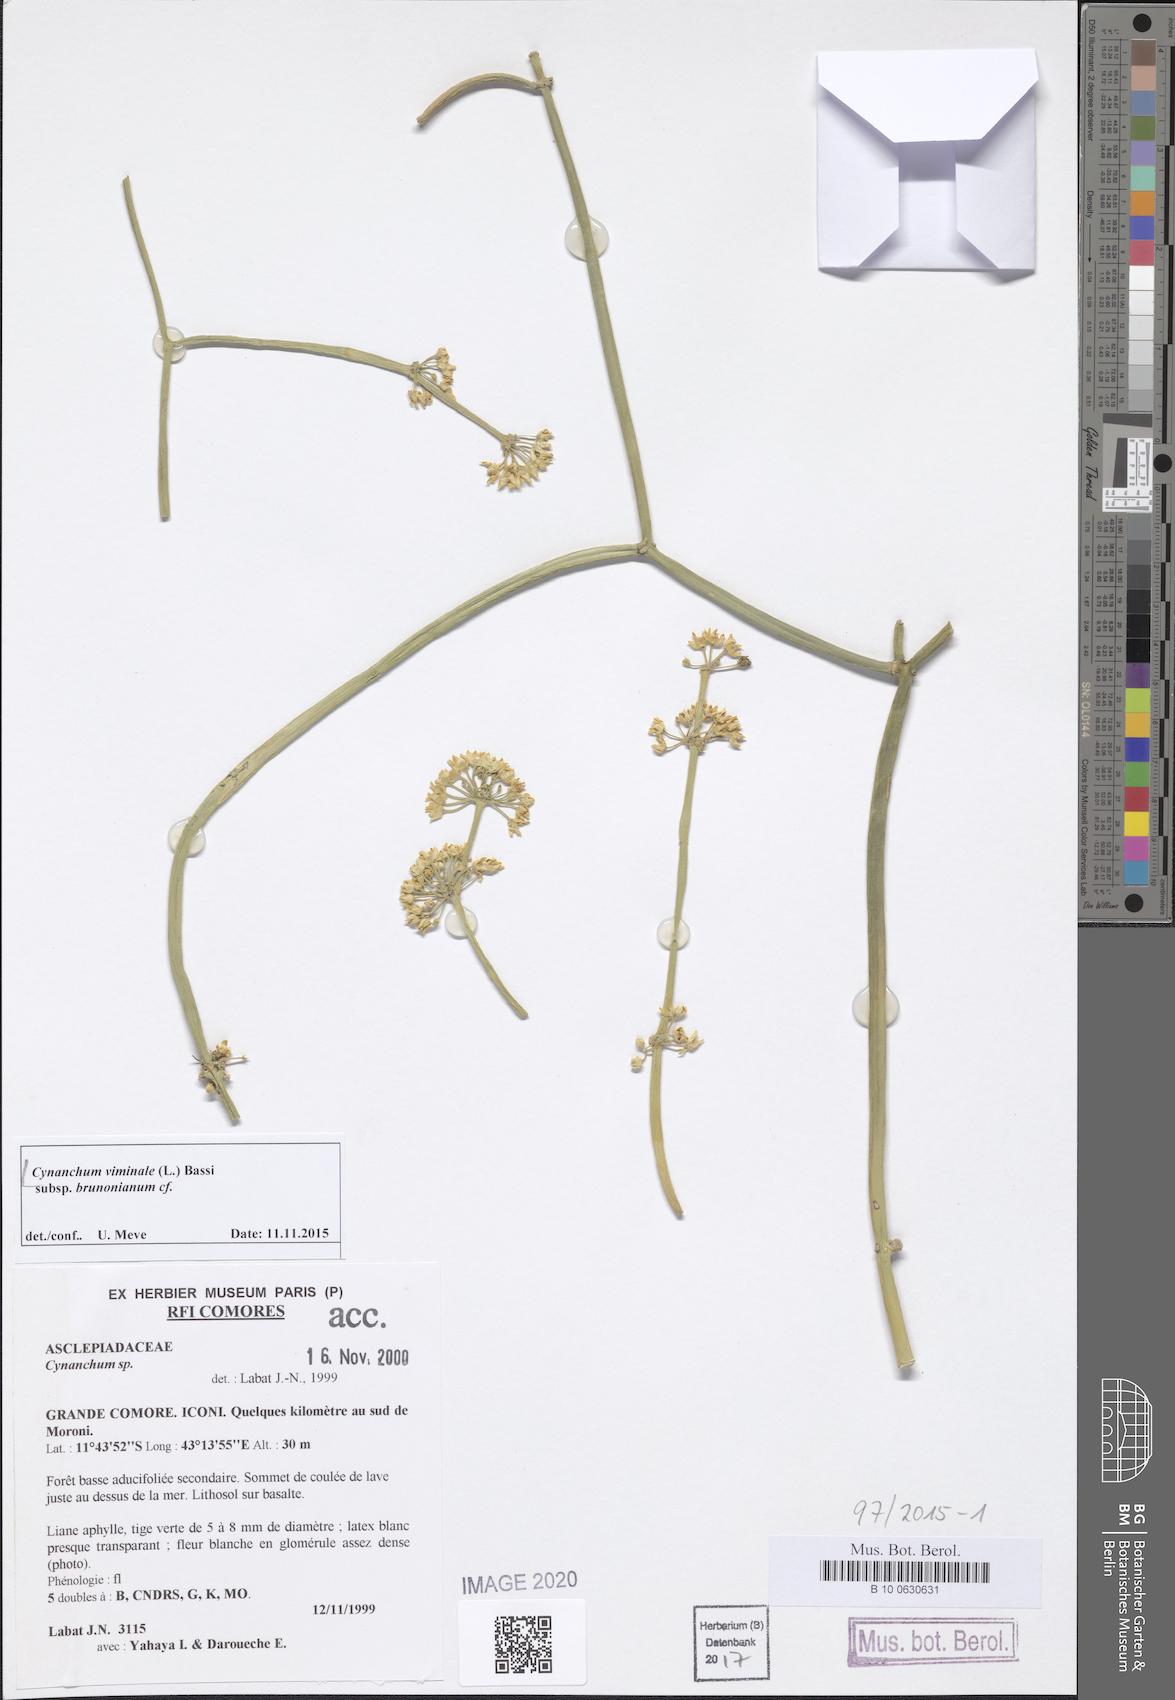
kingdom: Plantae
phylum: Tracheophyta
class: Magnoliopsida
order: Gentianales
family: Apocynaceae
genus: Cynanchum
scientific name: Cynanchum viminale
